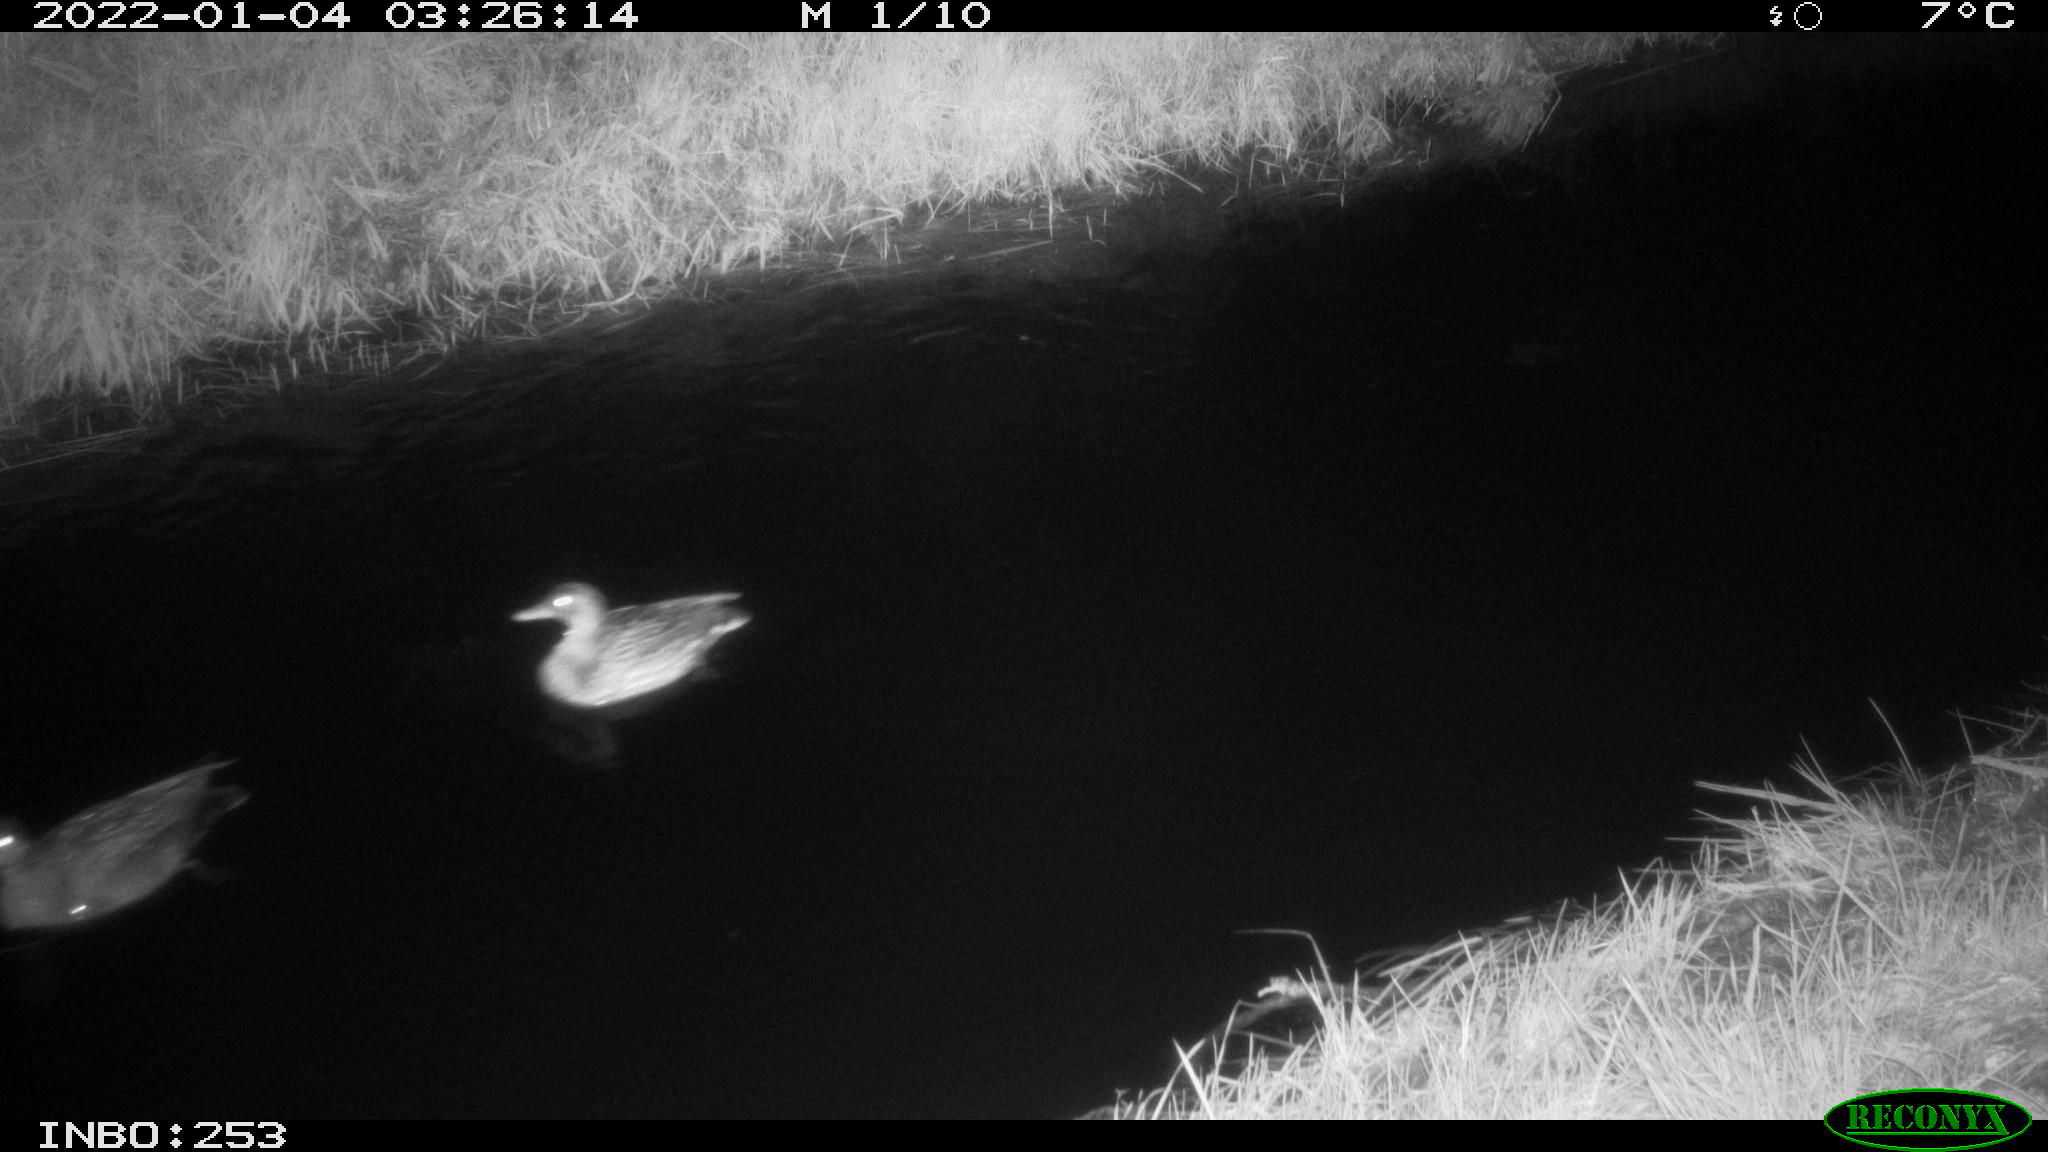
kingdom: Animalia
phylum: Chordata
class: Aves
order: Anseriformes
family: Anatidae
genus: Anas
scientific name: Anas
